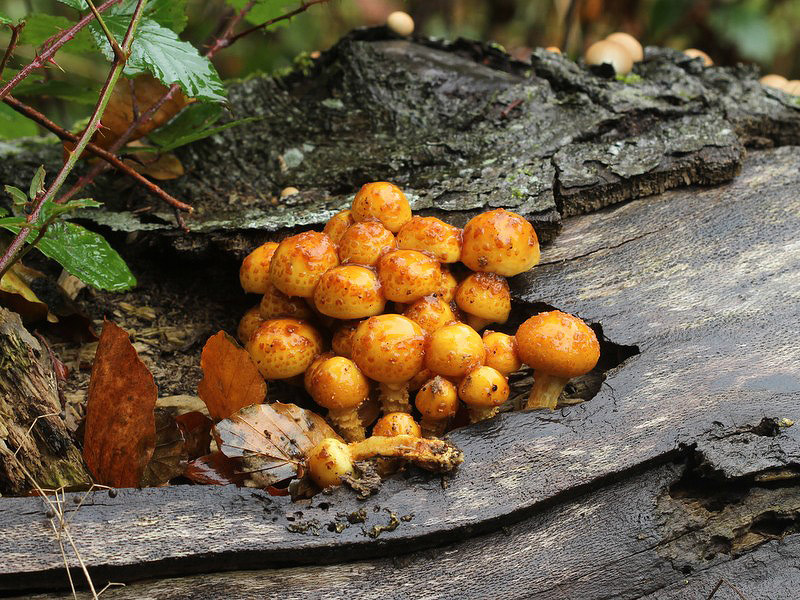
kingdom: Fungi
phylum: Basidiomycota
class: Agaricomycetes
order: Agaricales
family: Strophariaceae
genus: Pholiota
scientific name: Pholiota adiposa
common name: højtsiddende skælhat
